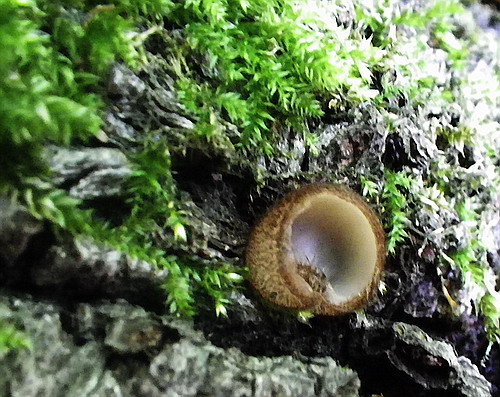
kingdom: Fungi
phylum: Ascomycota
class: Pezizomycetes
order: Pezizales
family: Pyronemataceae
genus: Humaria
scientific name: Humaria hemisphaerica
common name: halvkugleformet børstebæger
